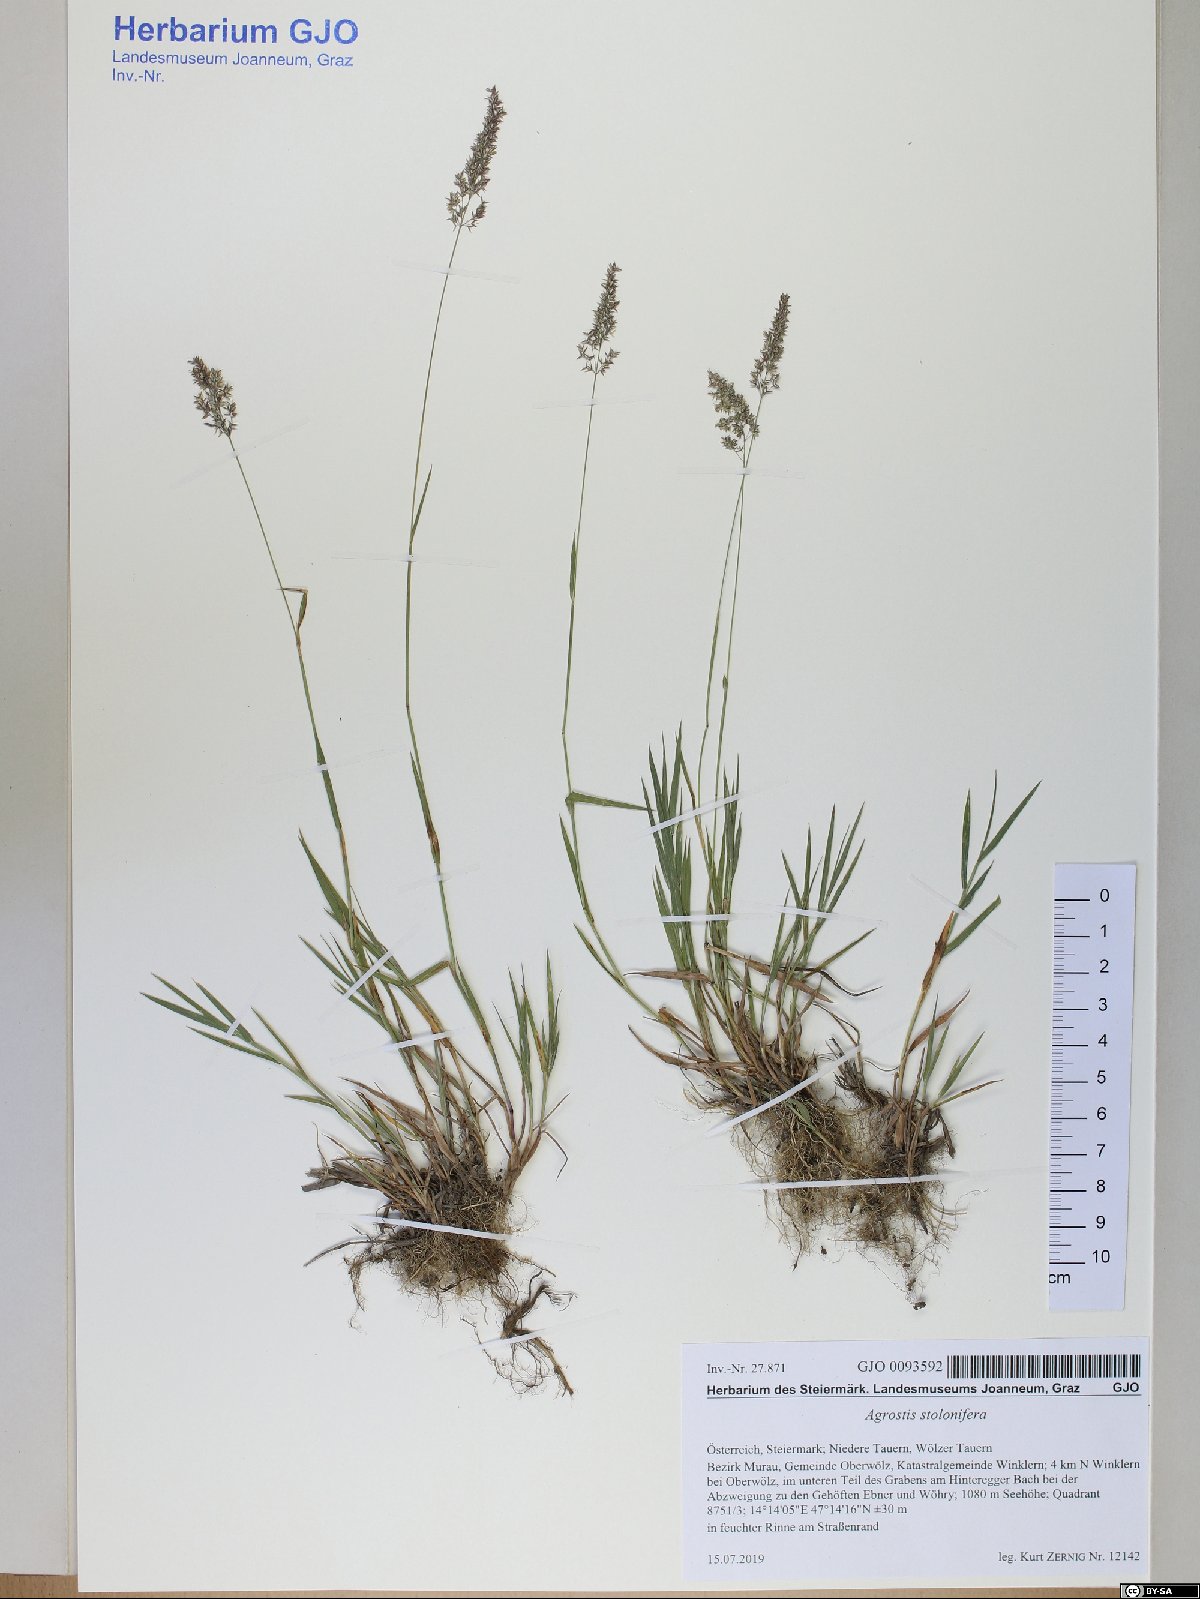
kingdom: Plantae
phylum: Tracheophyta
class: Liliopsida
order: Poales
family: Poaceae
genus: Agrostis
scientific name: Agrostis stolonifera
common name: Creeping bentgrass
